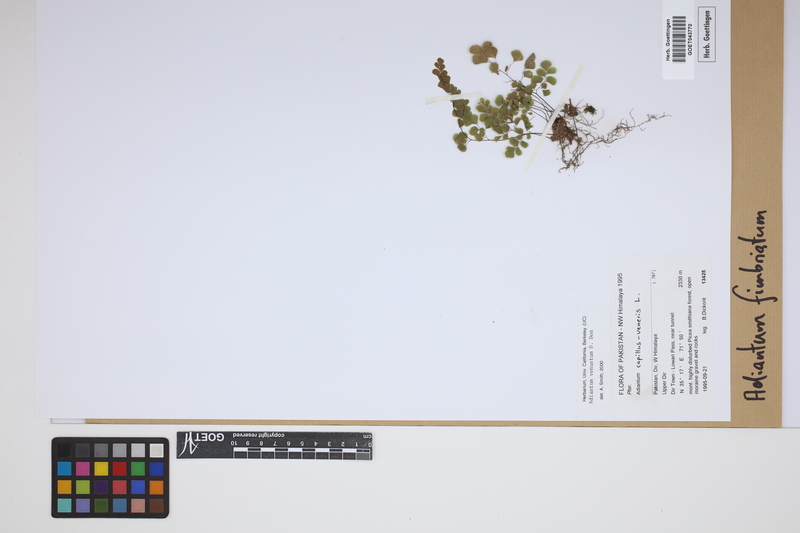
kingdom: Plantae
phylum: Tracheophyta
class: Polypodiopsida
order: Polypodiales
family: Pteridaceae
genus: Adiantum
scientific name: Adiantum venustum
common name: Evergreen maidenhair
